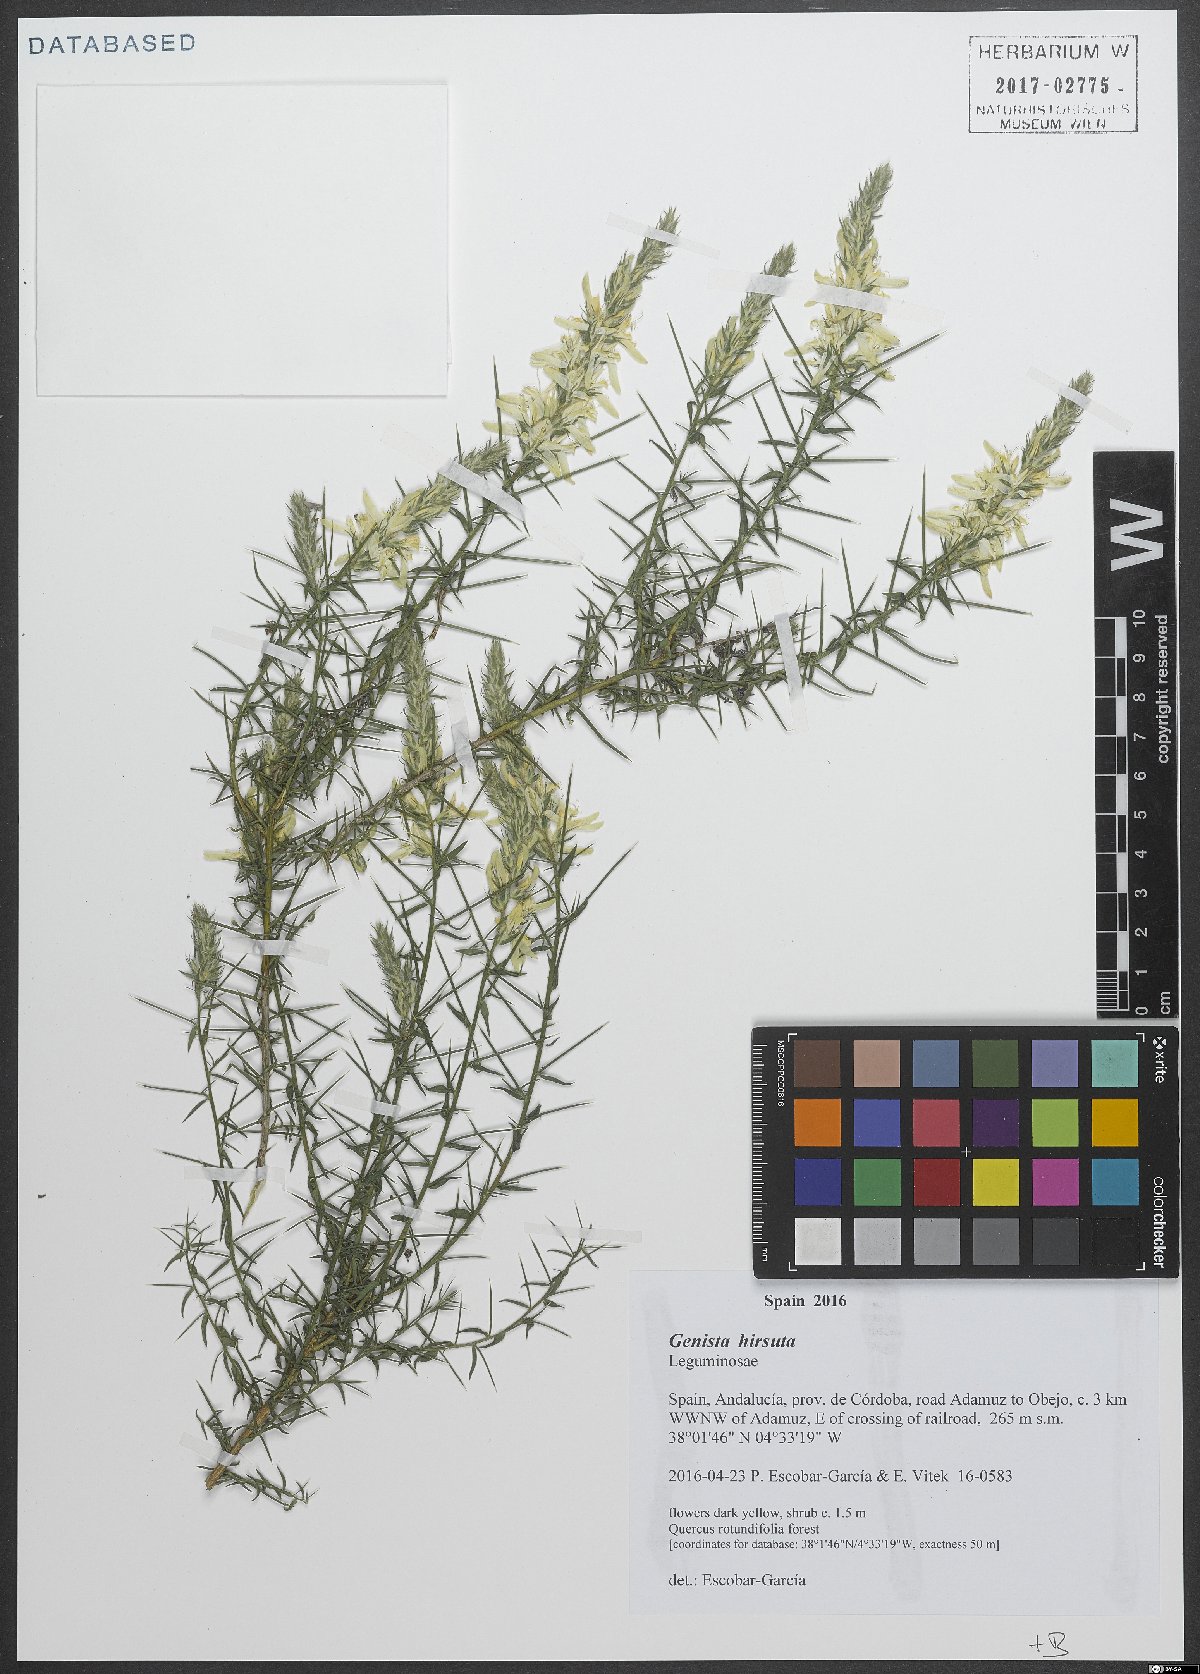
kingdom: Plantae
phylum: Tracheophyta
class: Magnoliopsida
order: Fabales
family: Fabaceae
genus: Genista
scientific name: Genista hirsuta
